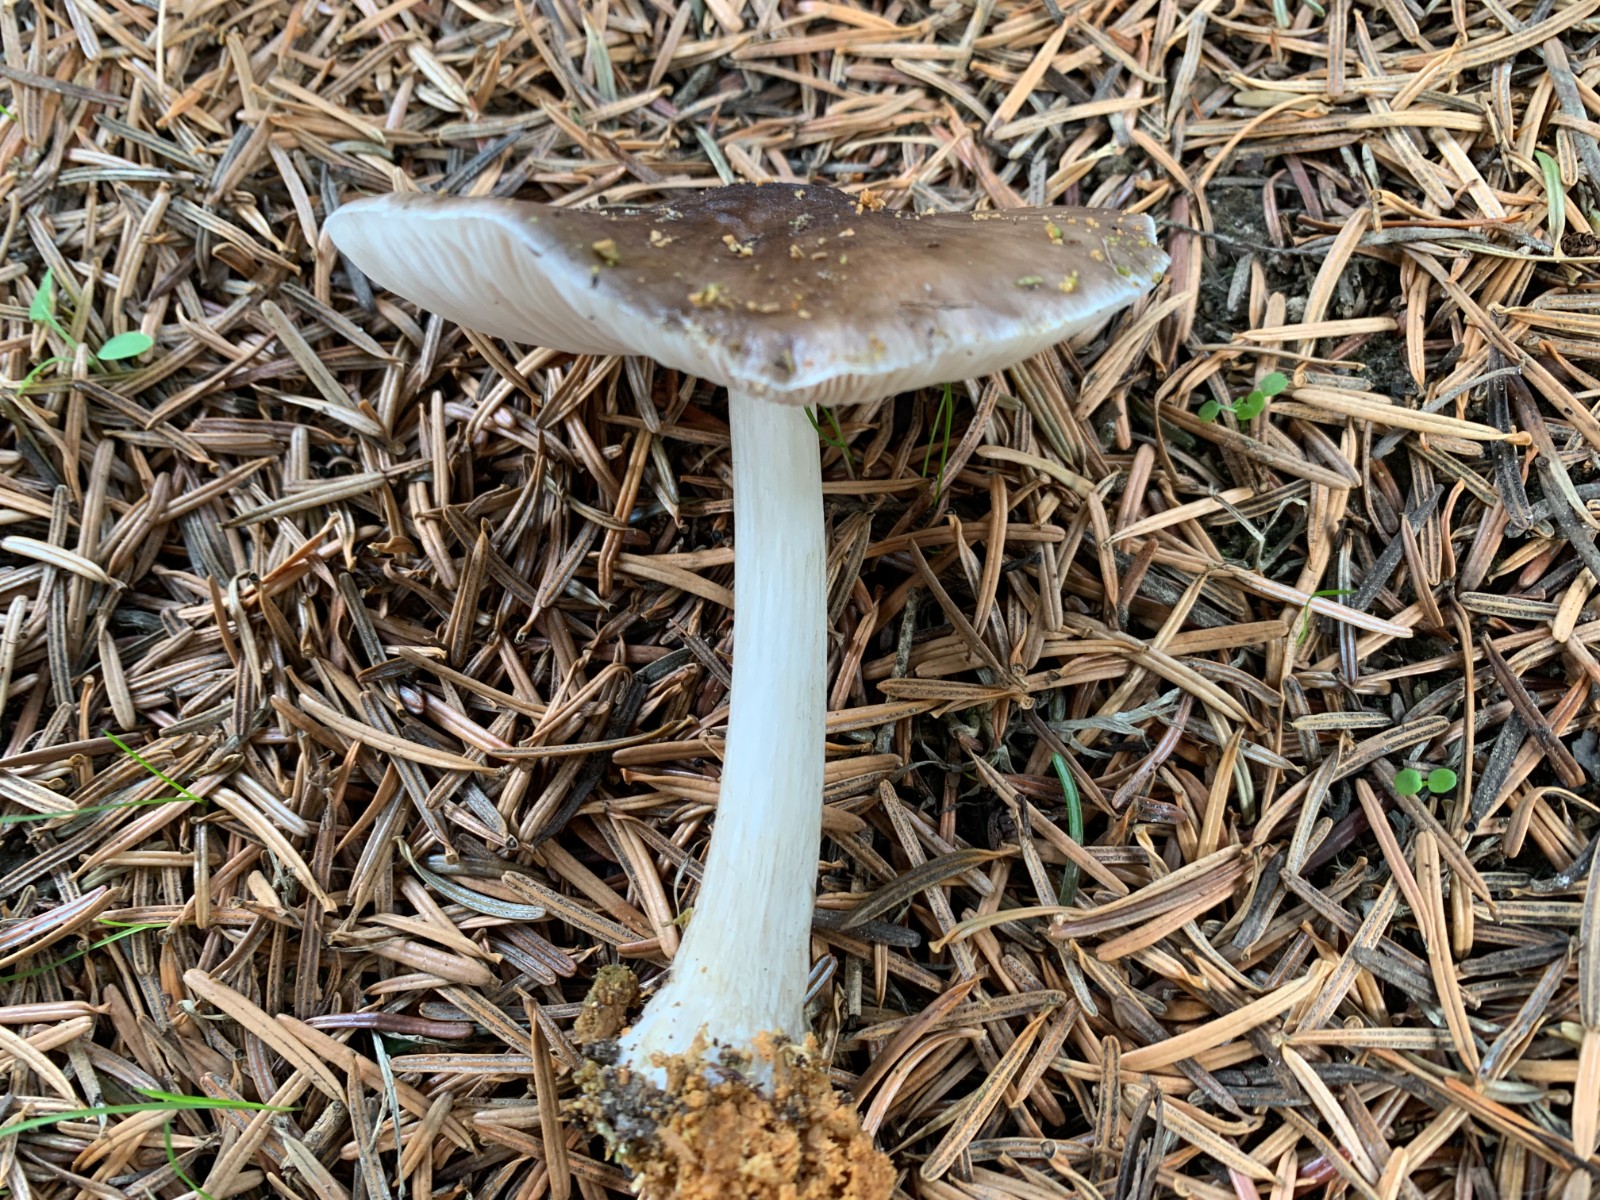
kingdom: Fungi
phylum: Basidiomycota
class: Agaricomycetes
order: Agaricales
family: Pluteaceae
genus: Pluteus
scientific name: Pluteus
